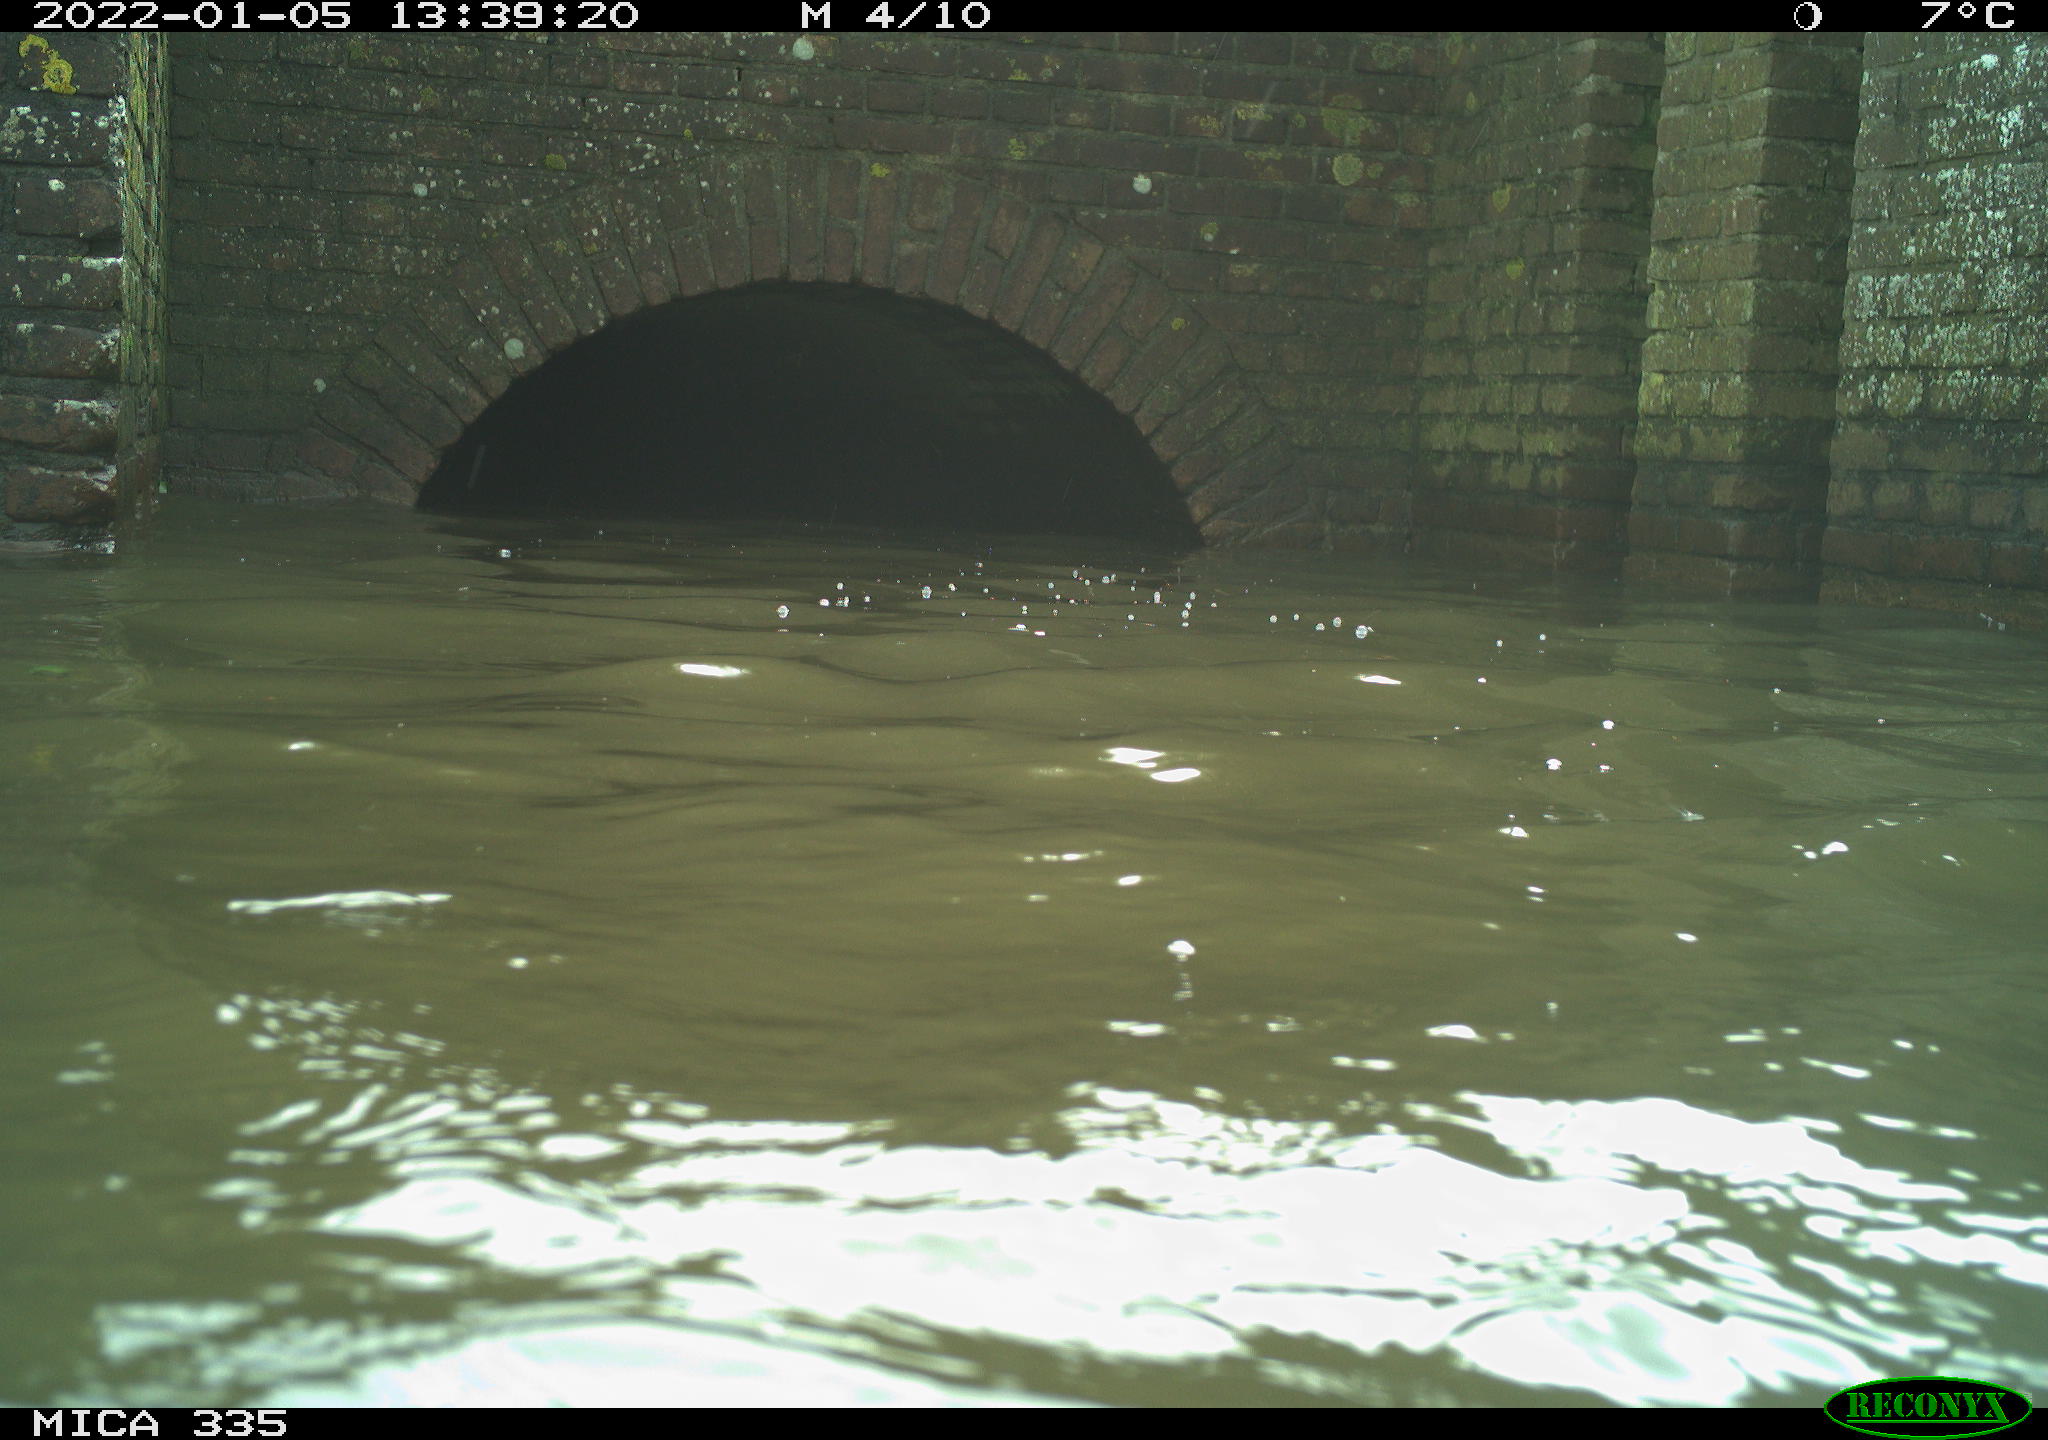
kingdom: Animalia
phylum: Chordata
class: Aves
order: Suliformes
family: Phalacrocoracidae
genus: Phalacrocorax
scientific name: Phalacrocorax carbo
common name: Great cormorant
